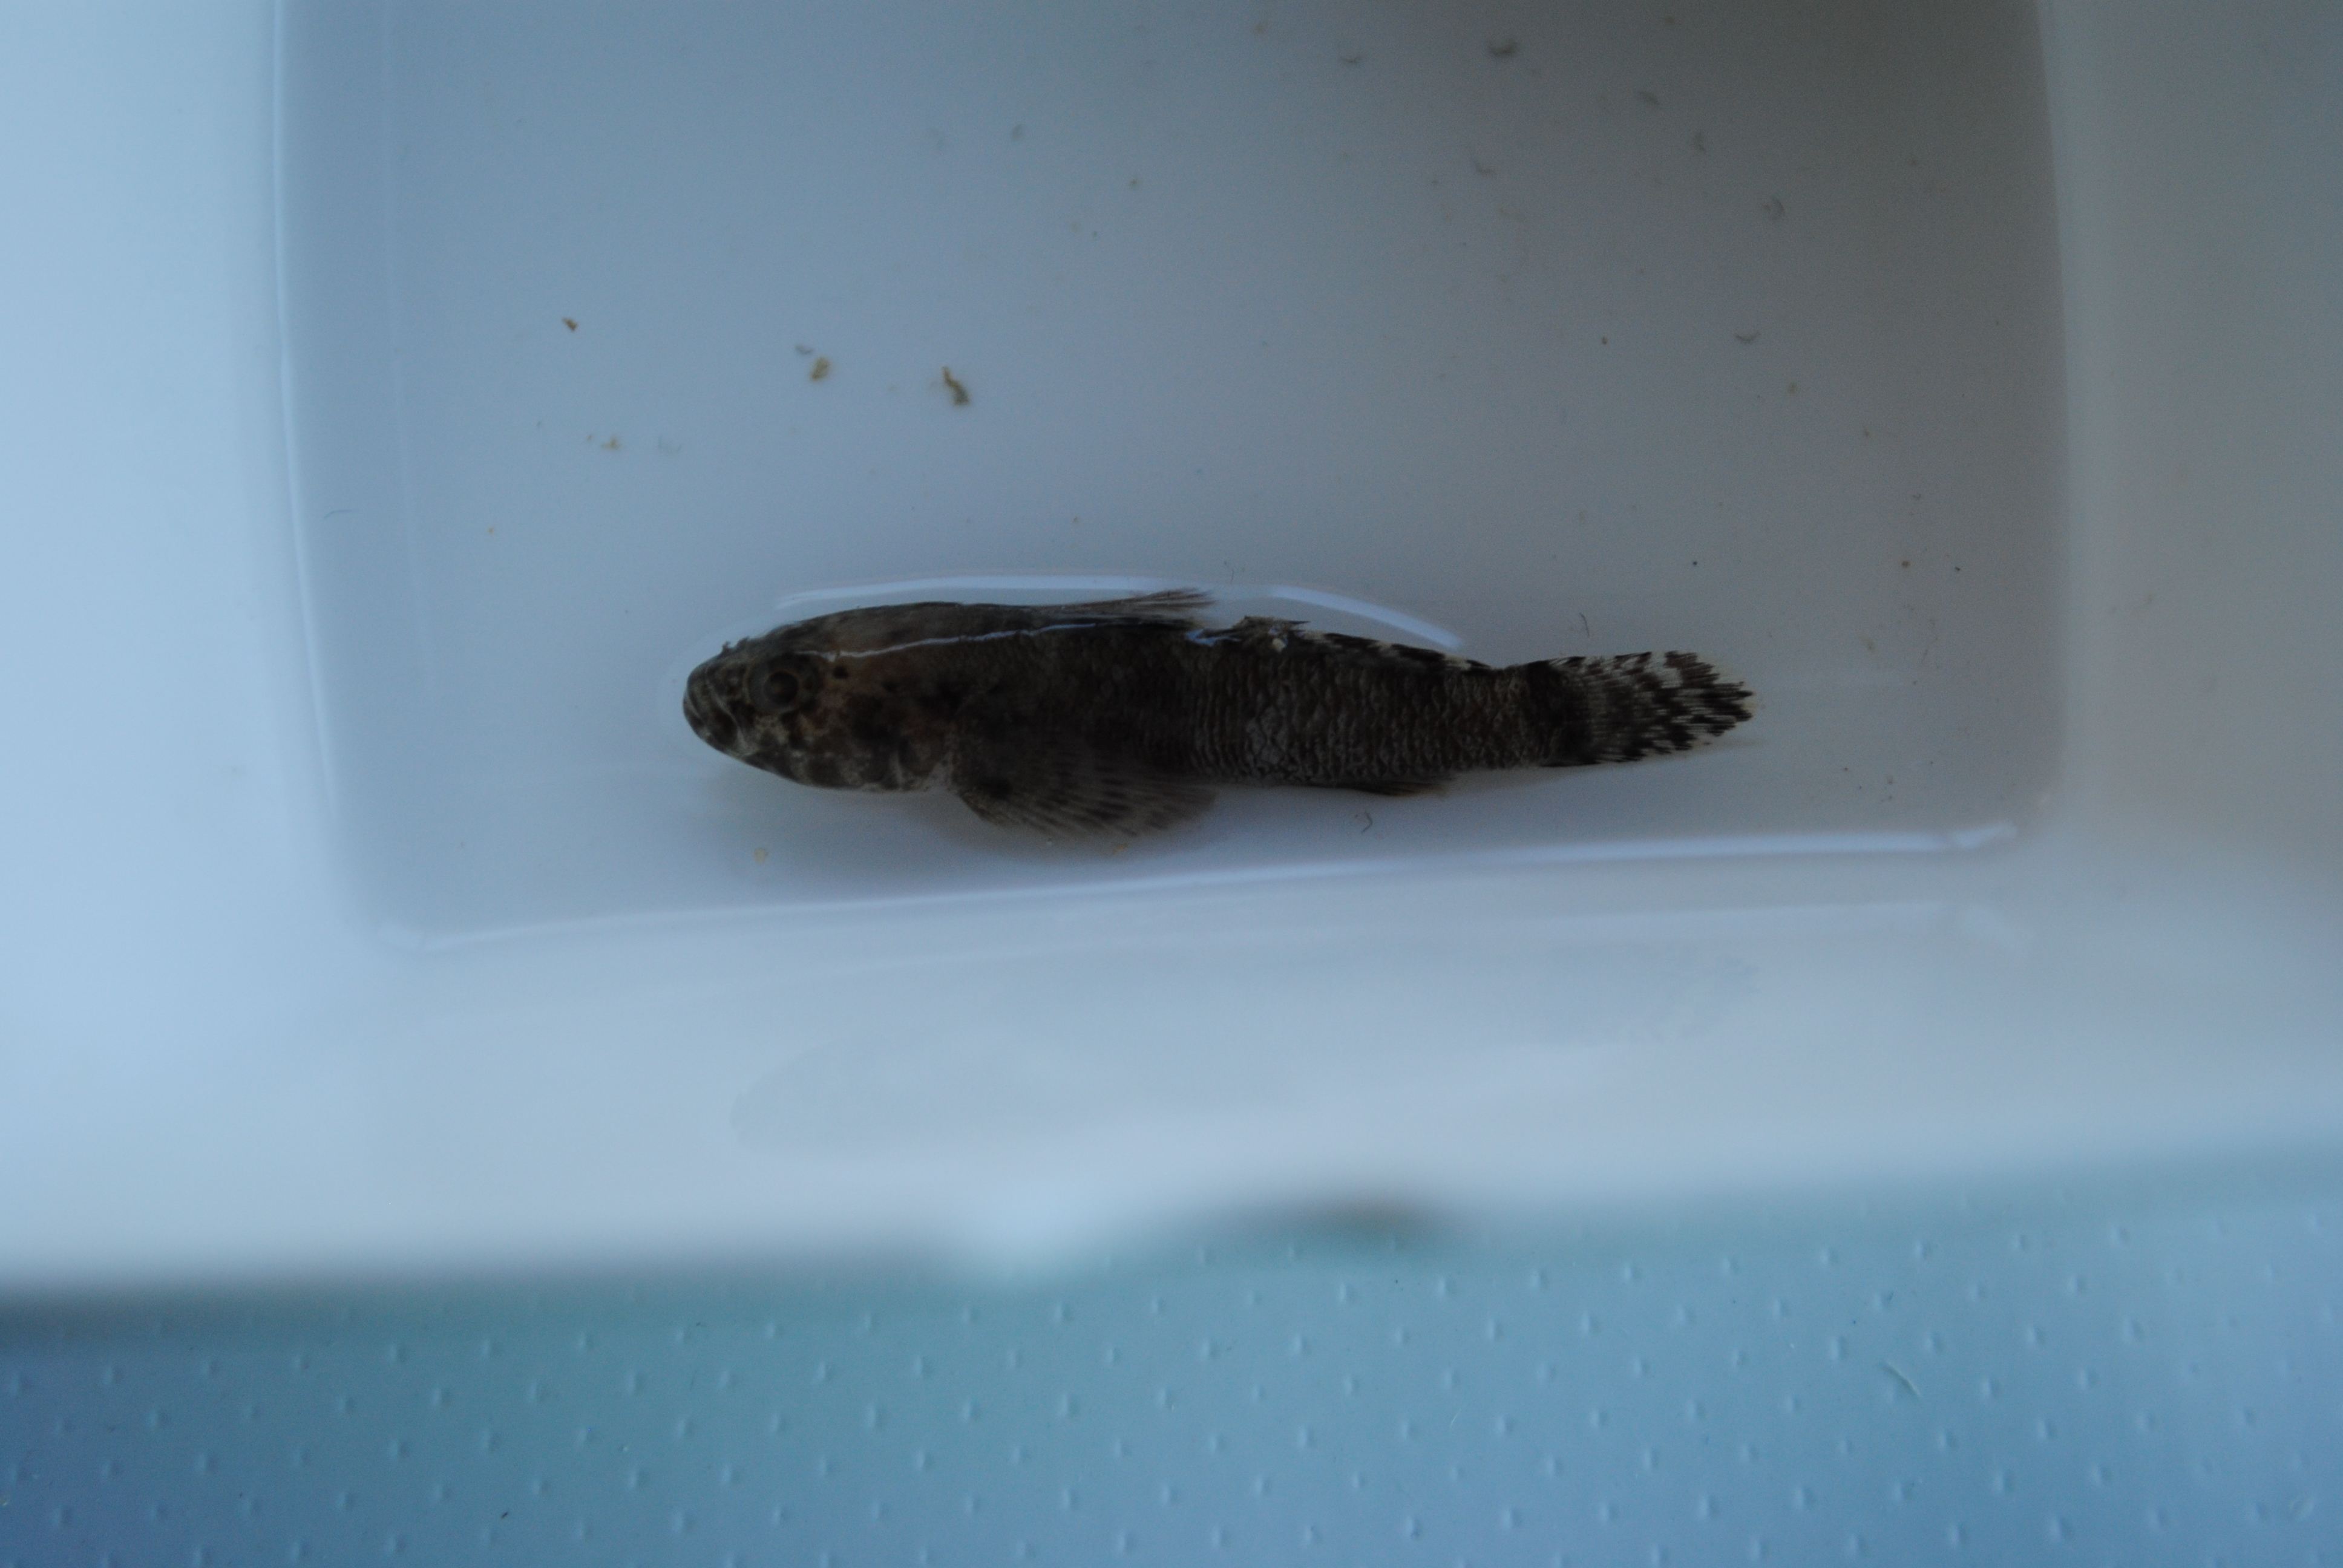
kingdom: Animalia
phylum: Chordata
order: Perciformes
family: Gobiidae
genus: Bathygobius
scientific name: Bathygobius
